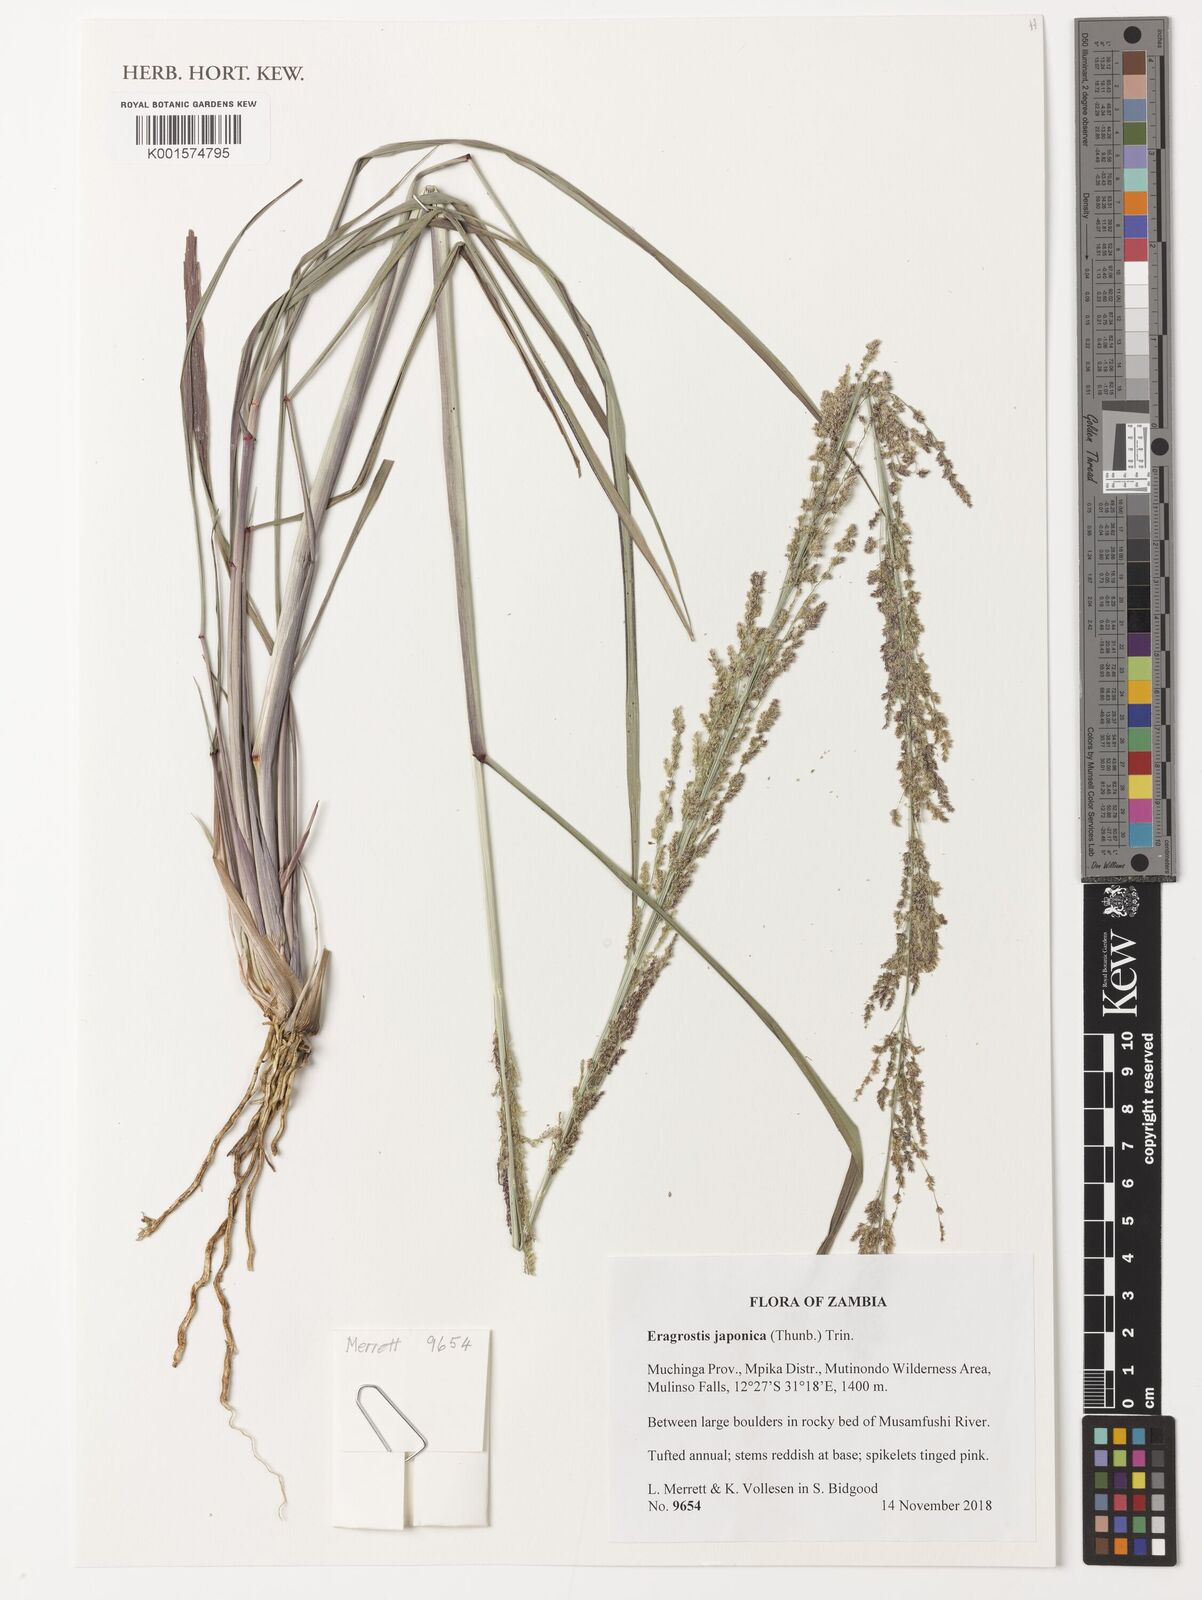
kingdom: Plantae
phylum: Tracheophyta
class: Liliopsida
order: Poales
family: Poaceae
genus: Eragrostis
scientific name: Eragrostis japonica
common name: Pond lovegrass
